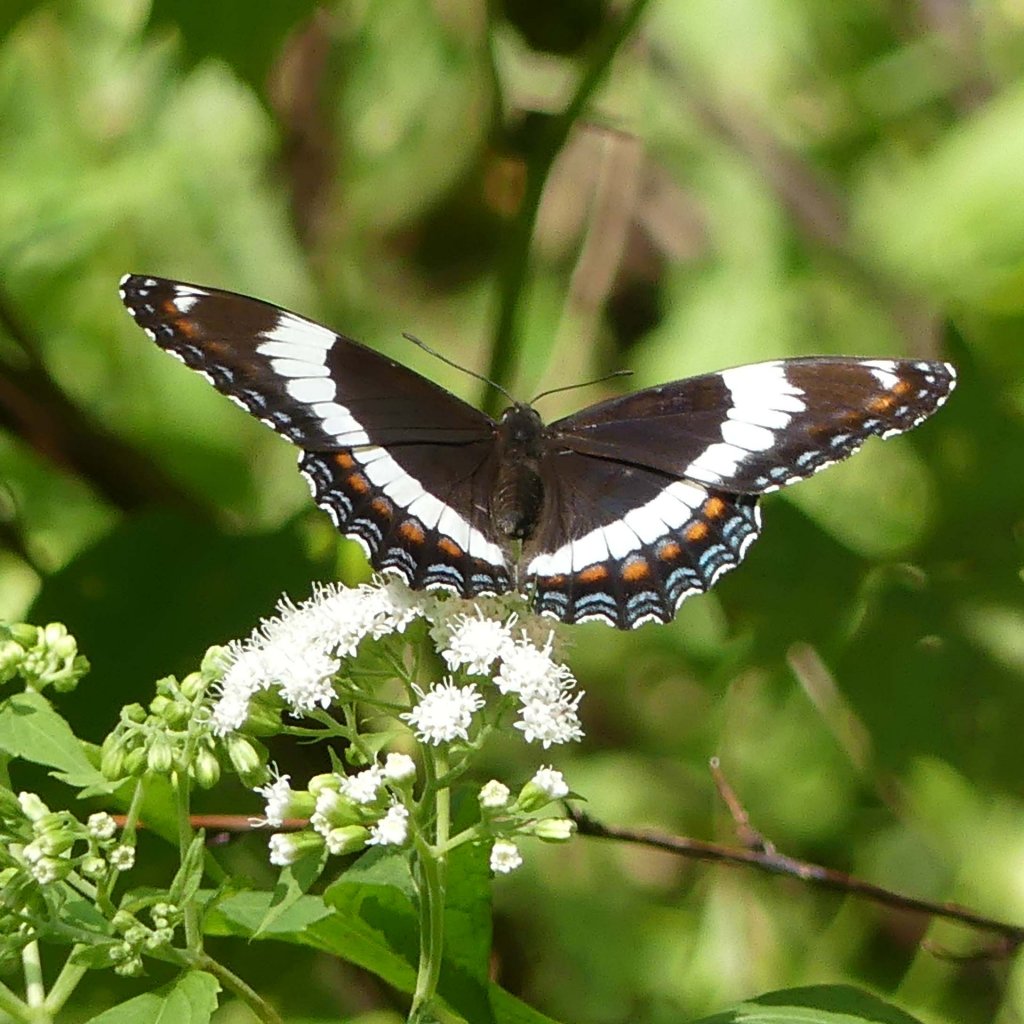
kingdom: Animalia
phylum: Arthropoda
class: Insecta
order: Lepidoptera
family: Nymphalidae
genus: Limenitis
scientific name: Limenitis arthemis
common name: Red-spotted Admiral
